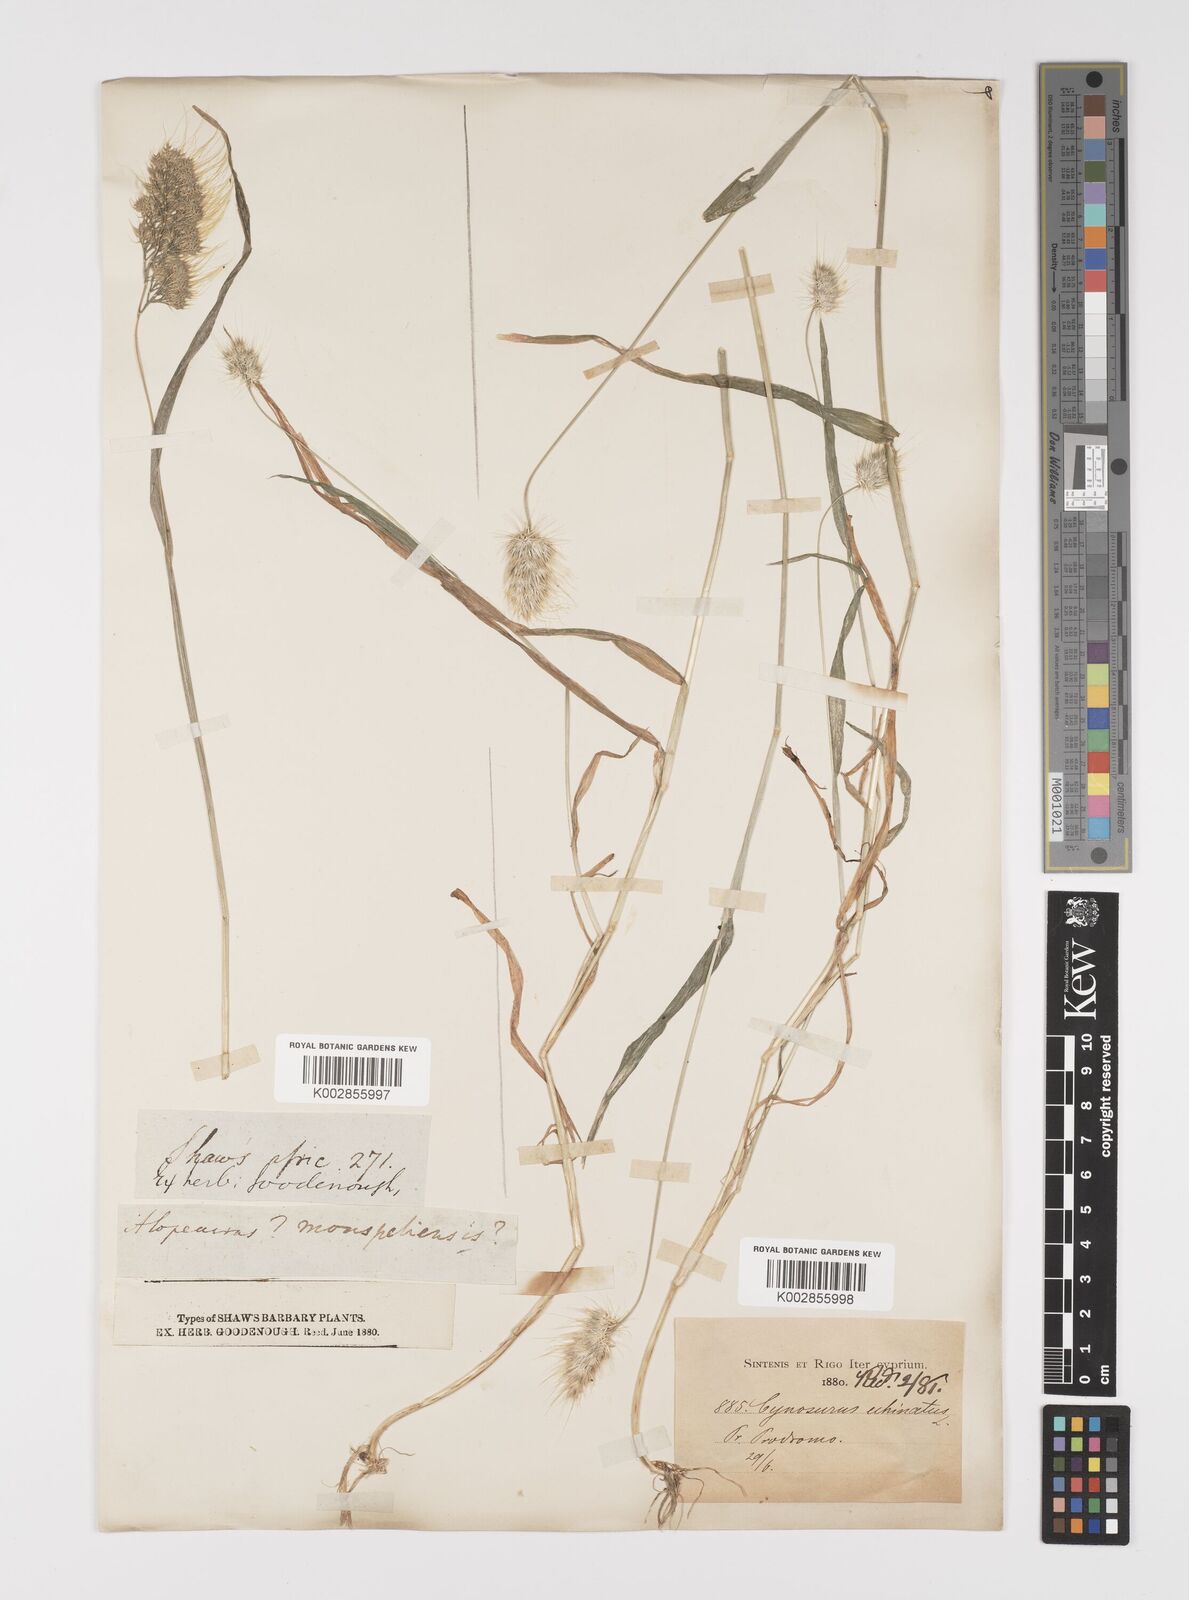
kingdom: Plantae
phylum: Tracheophyta
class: Liliopsida
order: Poales
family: Poaceae
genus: Cynosurus
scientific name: Cynosurus echinatus
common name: Rough dog's-tail
